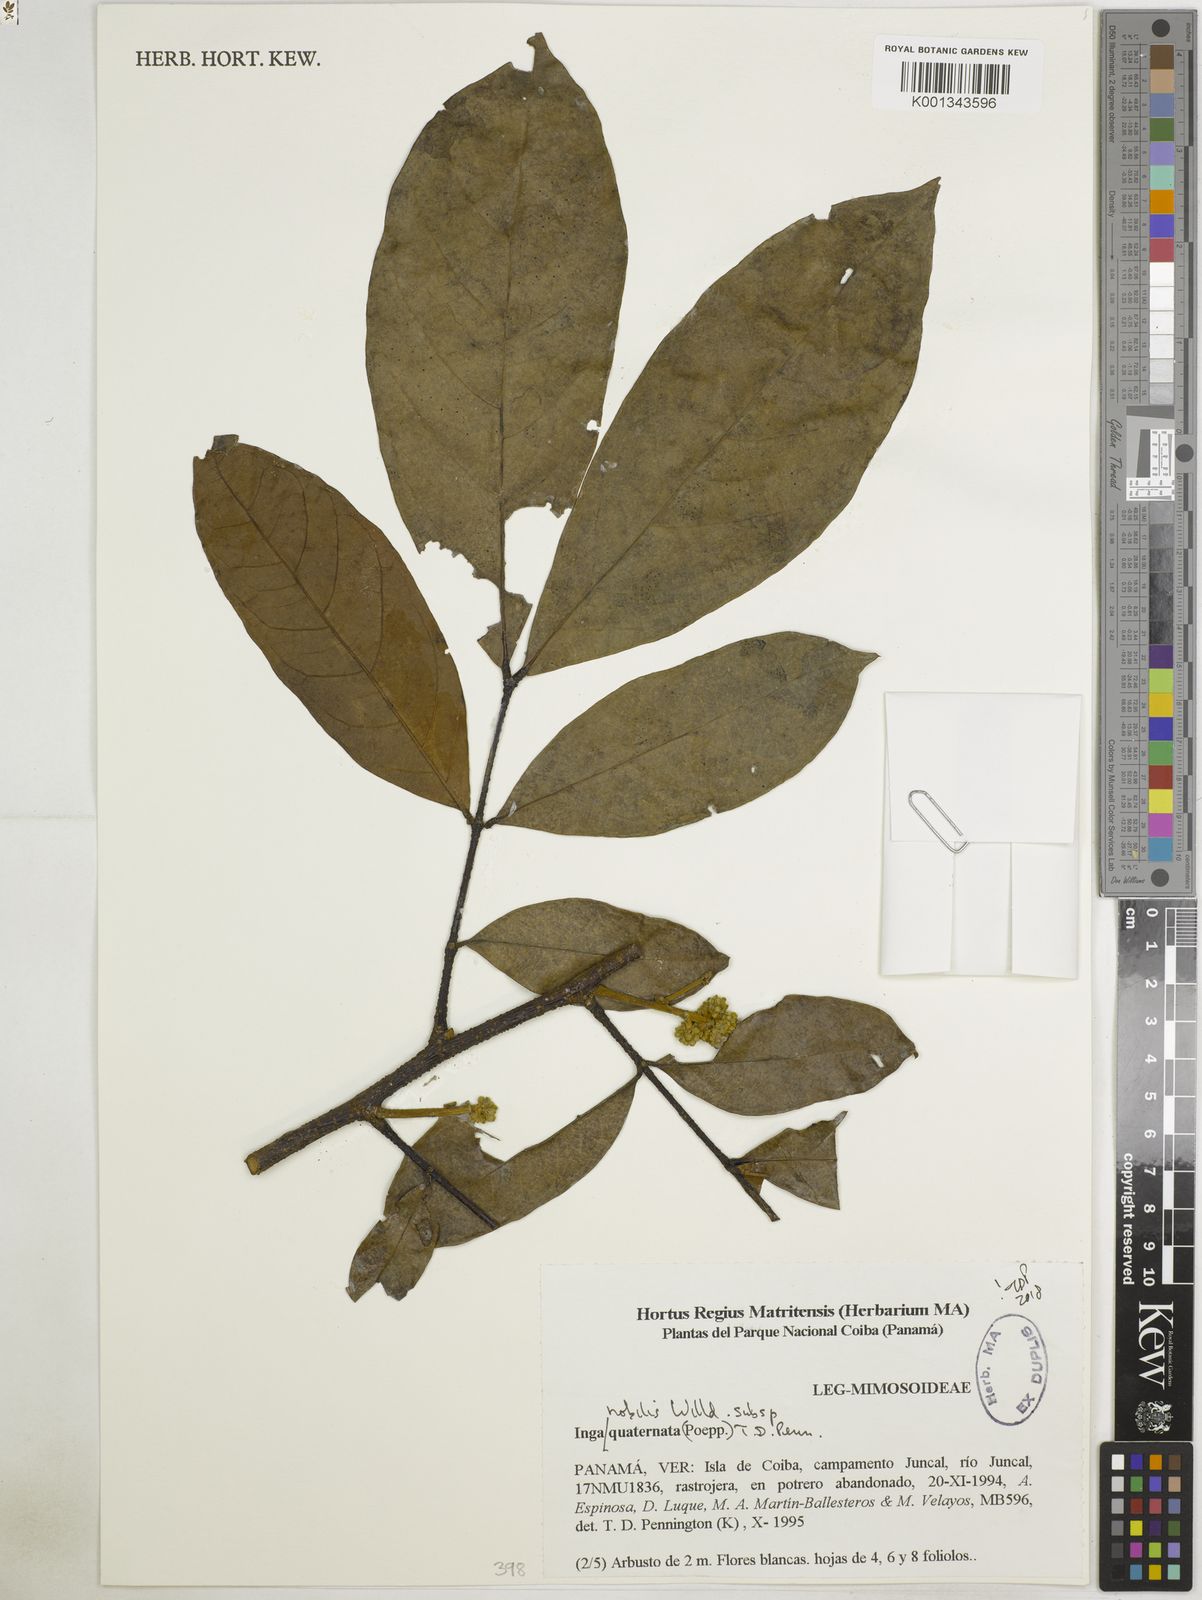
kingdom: Plantae
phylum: Tracheophyta
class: Magnoliopsida
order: Fabales
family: Fabaceae
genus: Inga
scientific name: Inga nobilis
